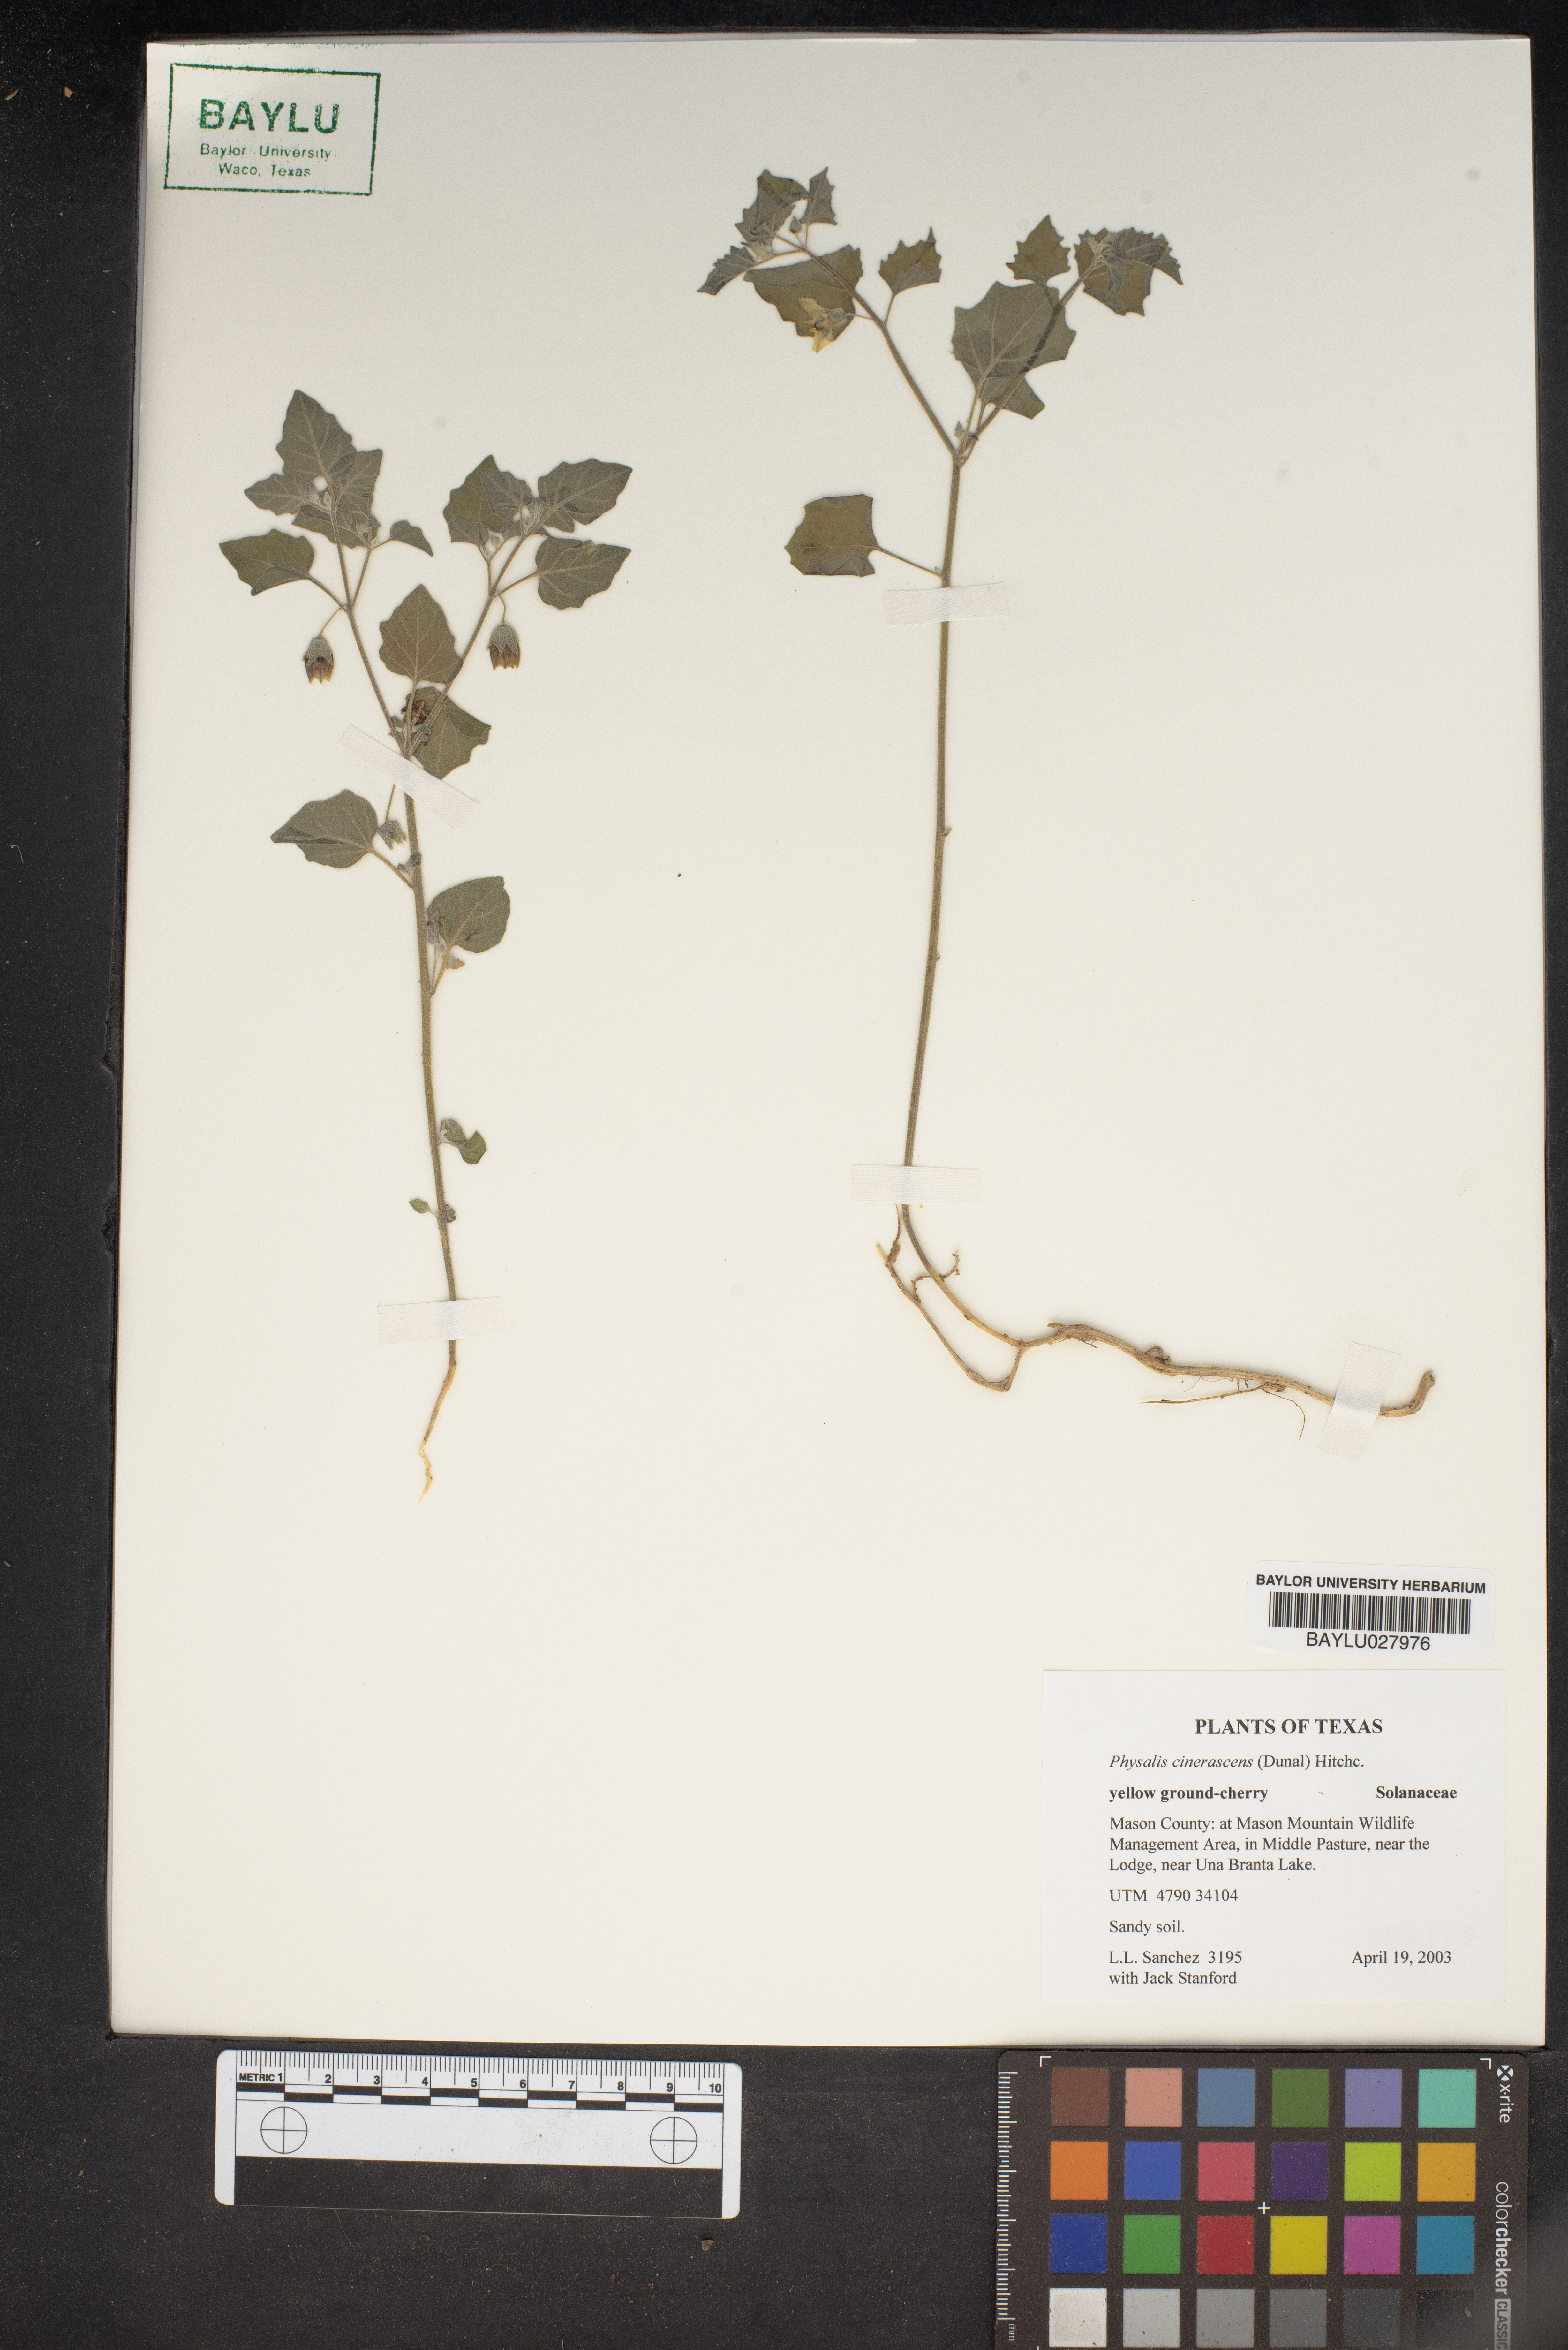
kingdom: Plantae
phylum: Tracheophyta
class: Magnoliopsida
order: Solanales
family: Solanaceae
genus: Physalis
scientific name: Physalis cinerascens
